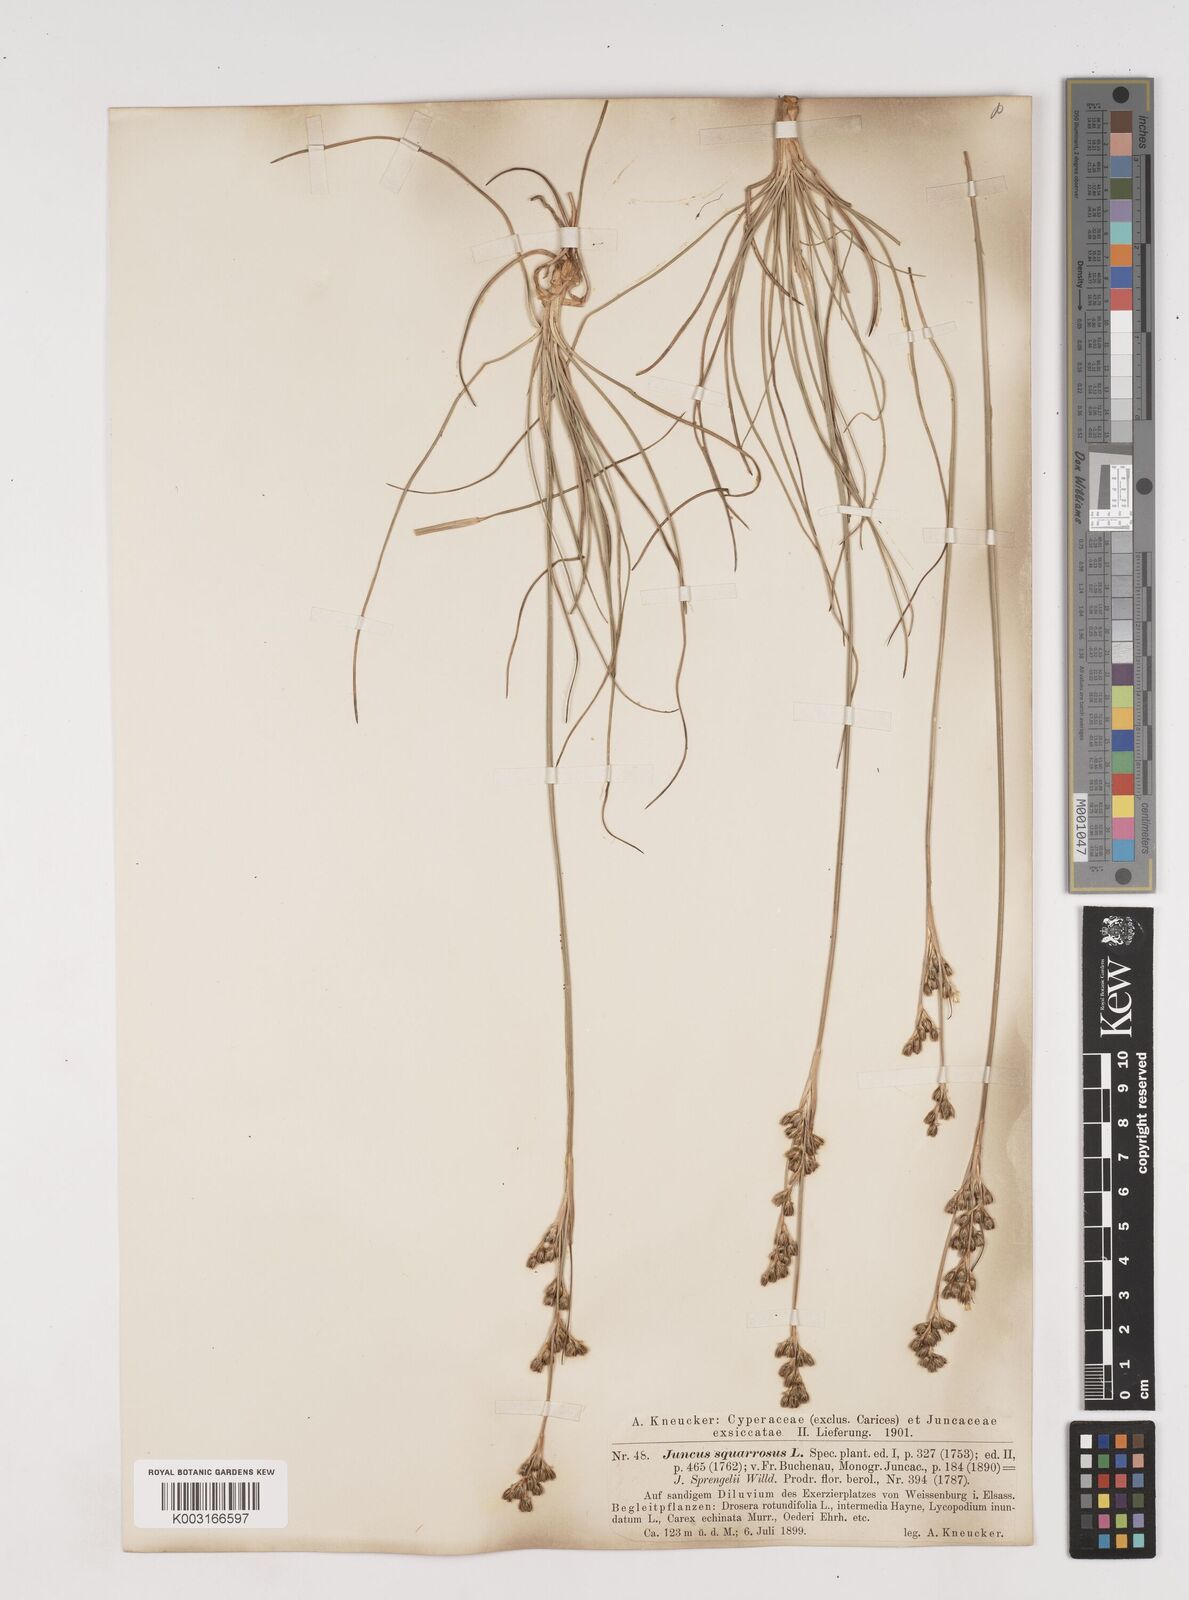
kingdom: Plantae
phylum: Tracheophyta
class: Liliopsida
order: Poales
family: Juncaceae
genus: Juncus
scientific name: Juncus squarrosus
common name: Heath rush
